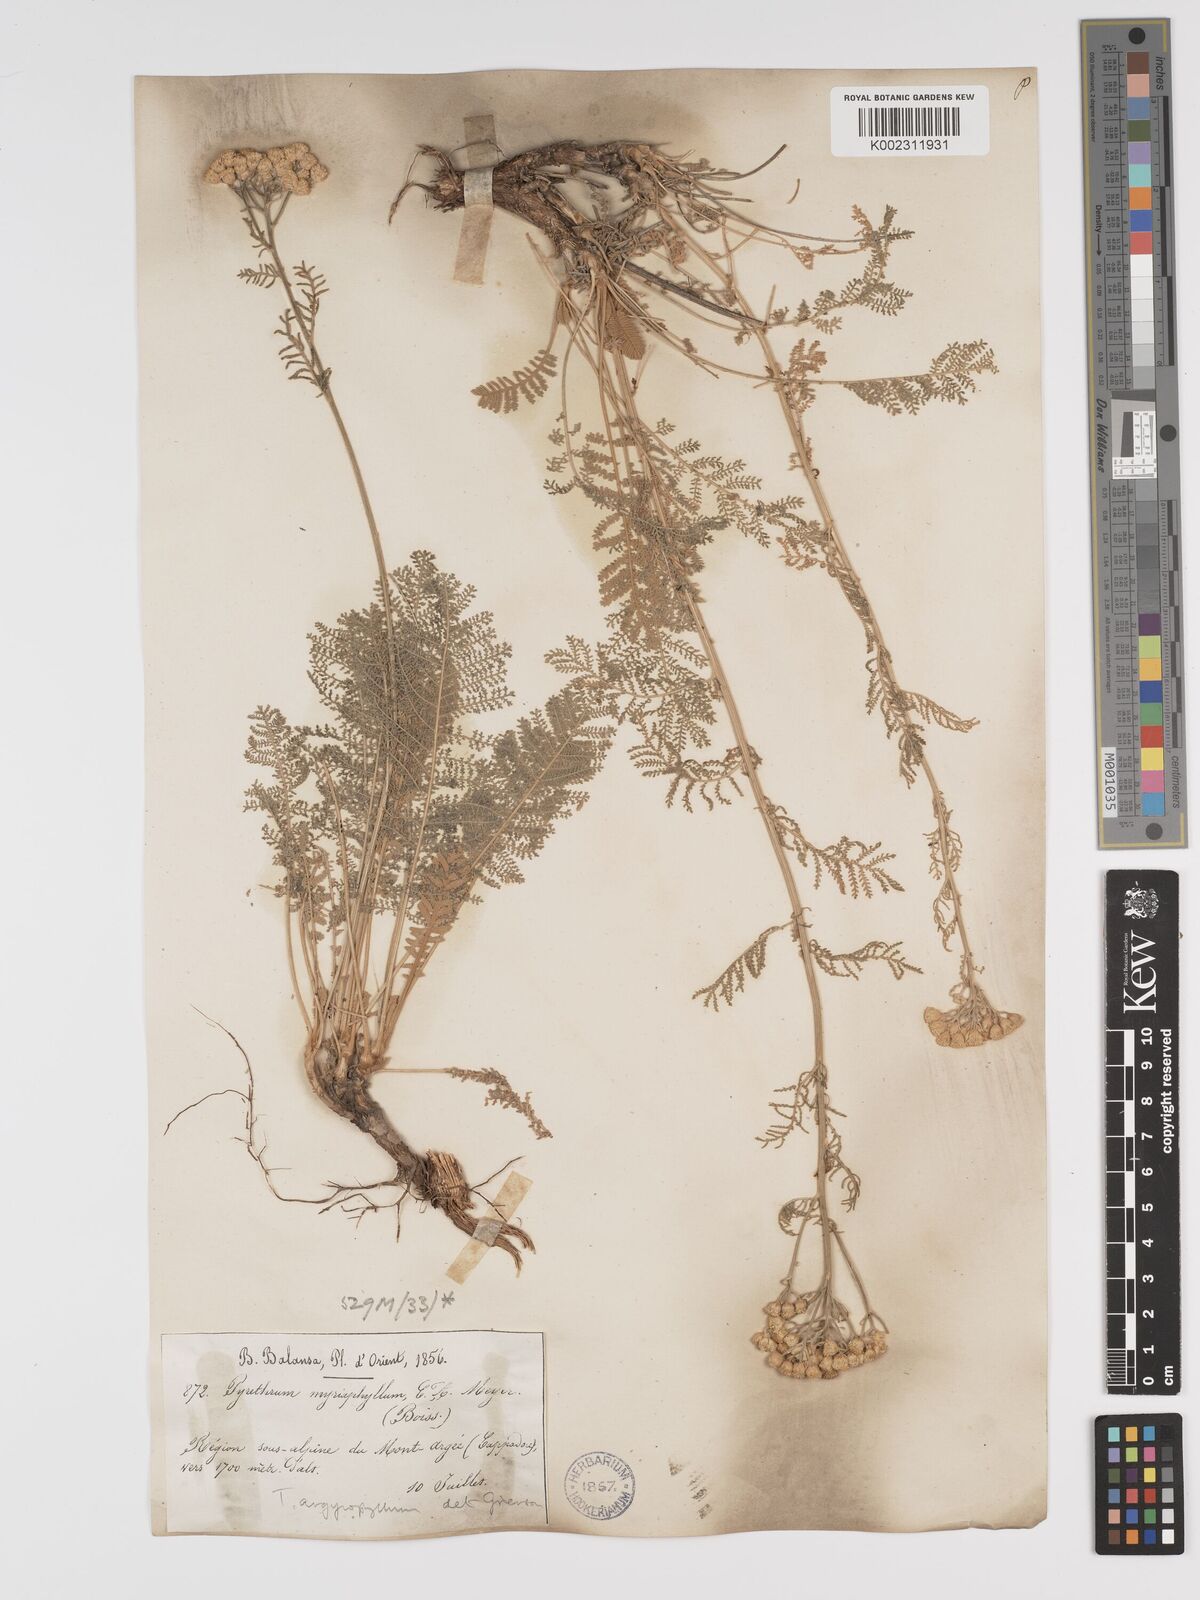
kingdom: Plantae
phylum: Tracheophyta
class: Magnoliopsida
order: Asterales
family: Asteraceae
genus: Tanacetum
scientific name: Tanacetum polycephalum
